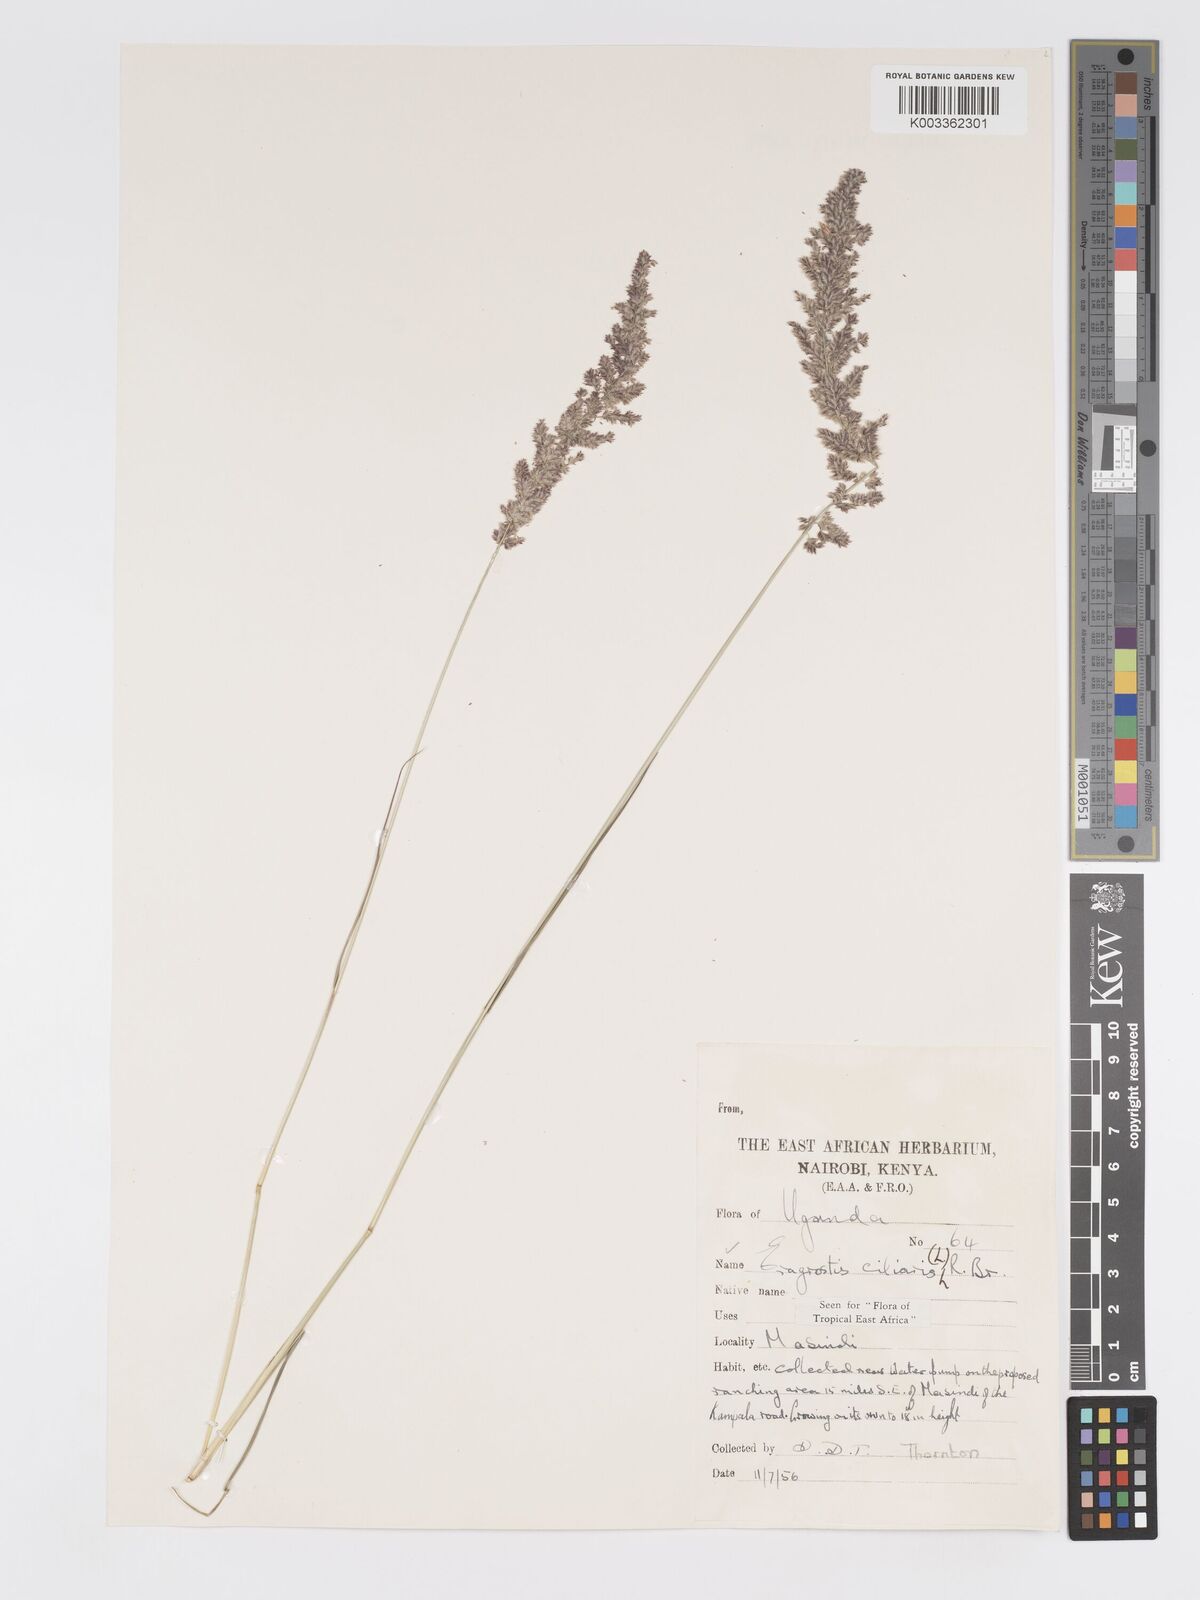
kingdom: Plantae
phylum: Tracheophyta
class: Liliopsida
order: Poales
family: Poaceae
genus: Eragrostis
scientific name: Eragrostis ciliaris
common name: Gophertail lovegrass
